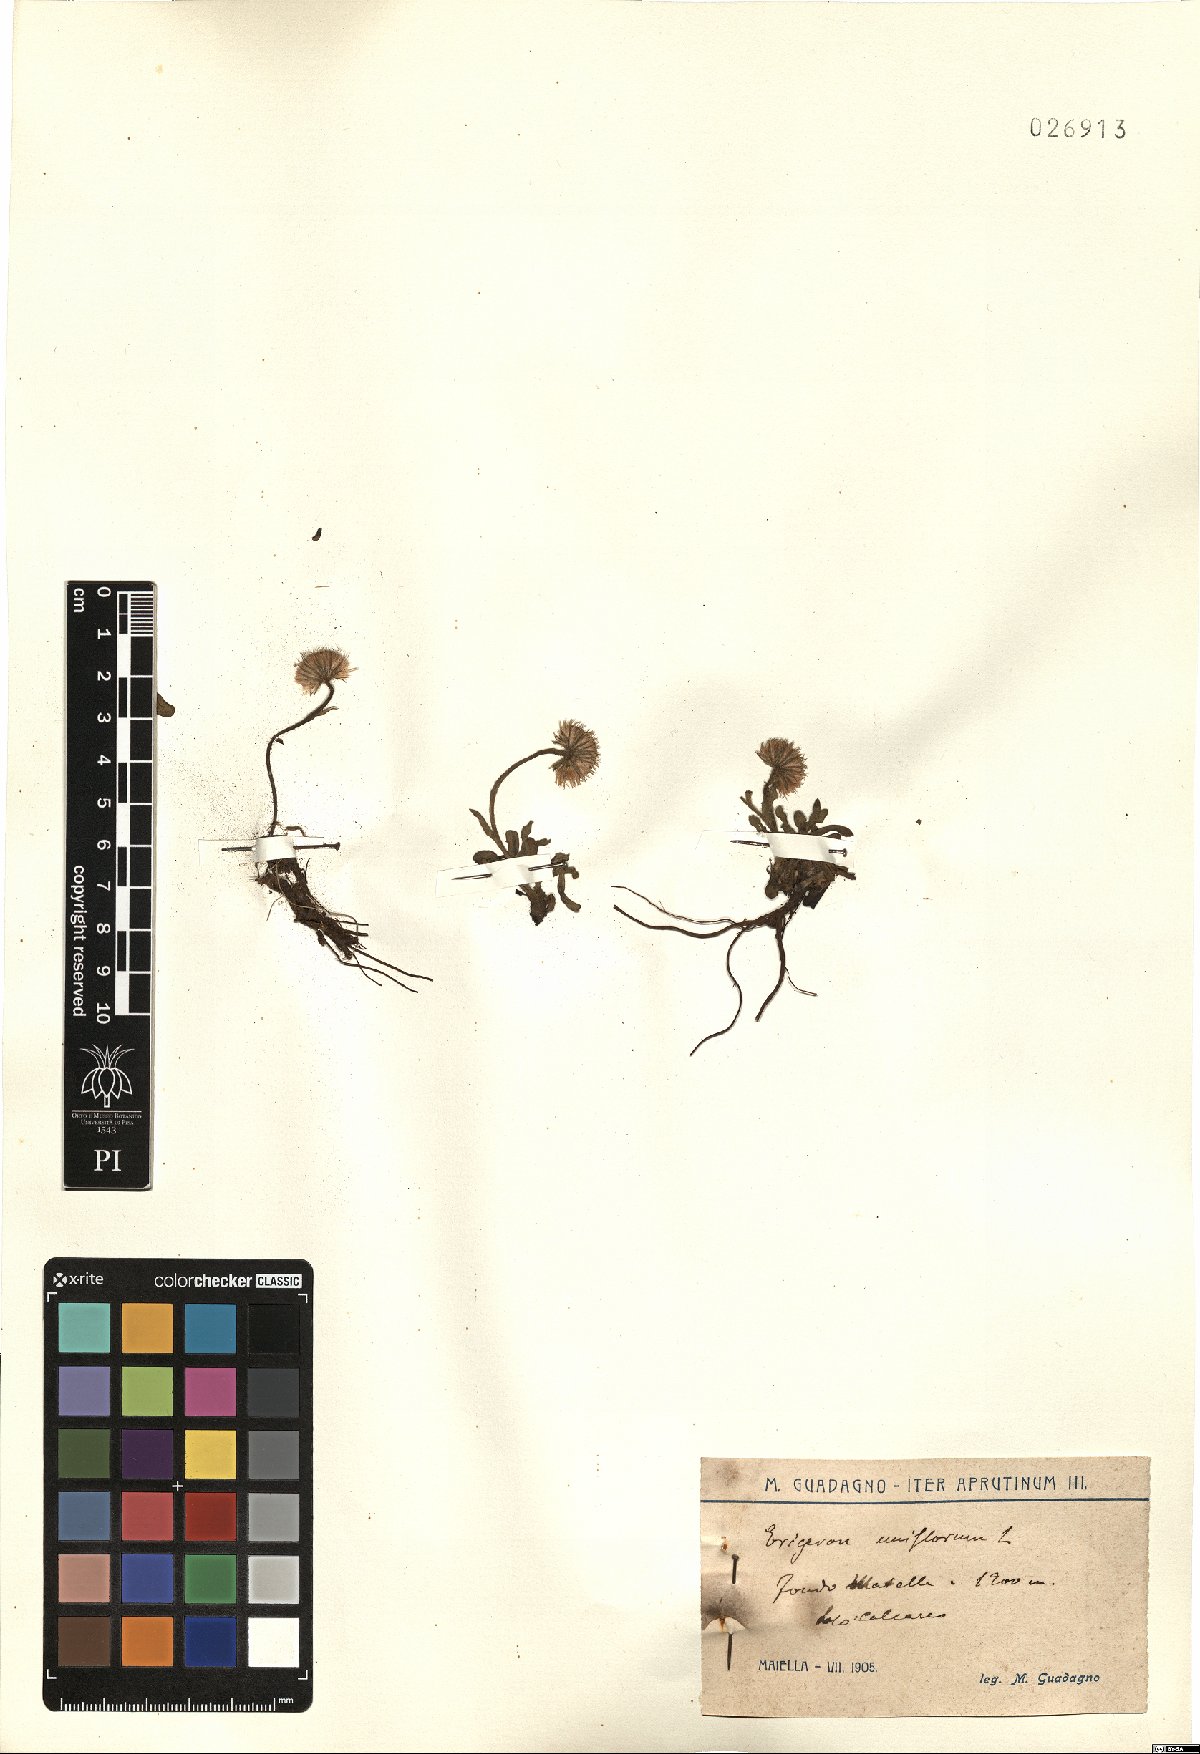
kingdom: Plantae
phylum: Tracheophyta
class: Magnoliopsida
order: Asterales
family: Asteraceae
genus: Erigeron
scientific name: Erigeron uniflorus
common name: Northern daisy
